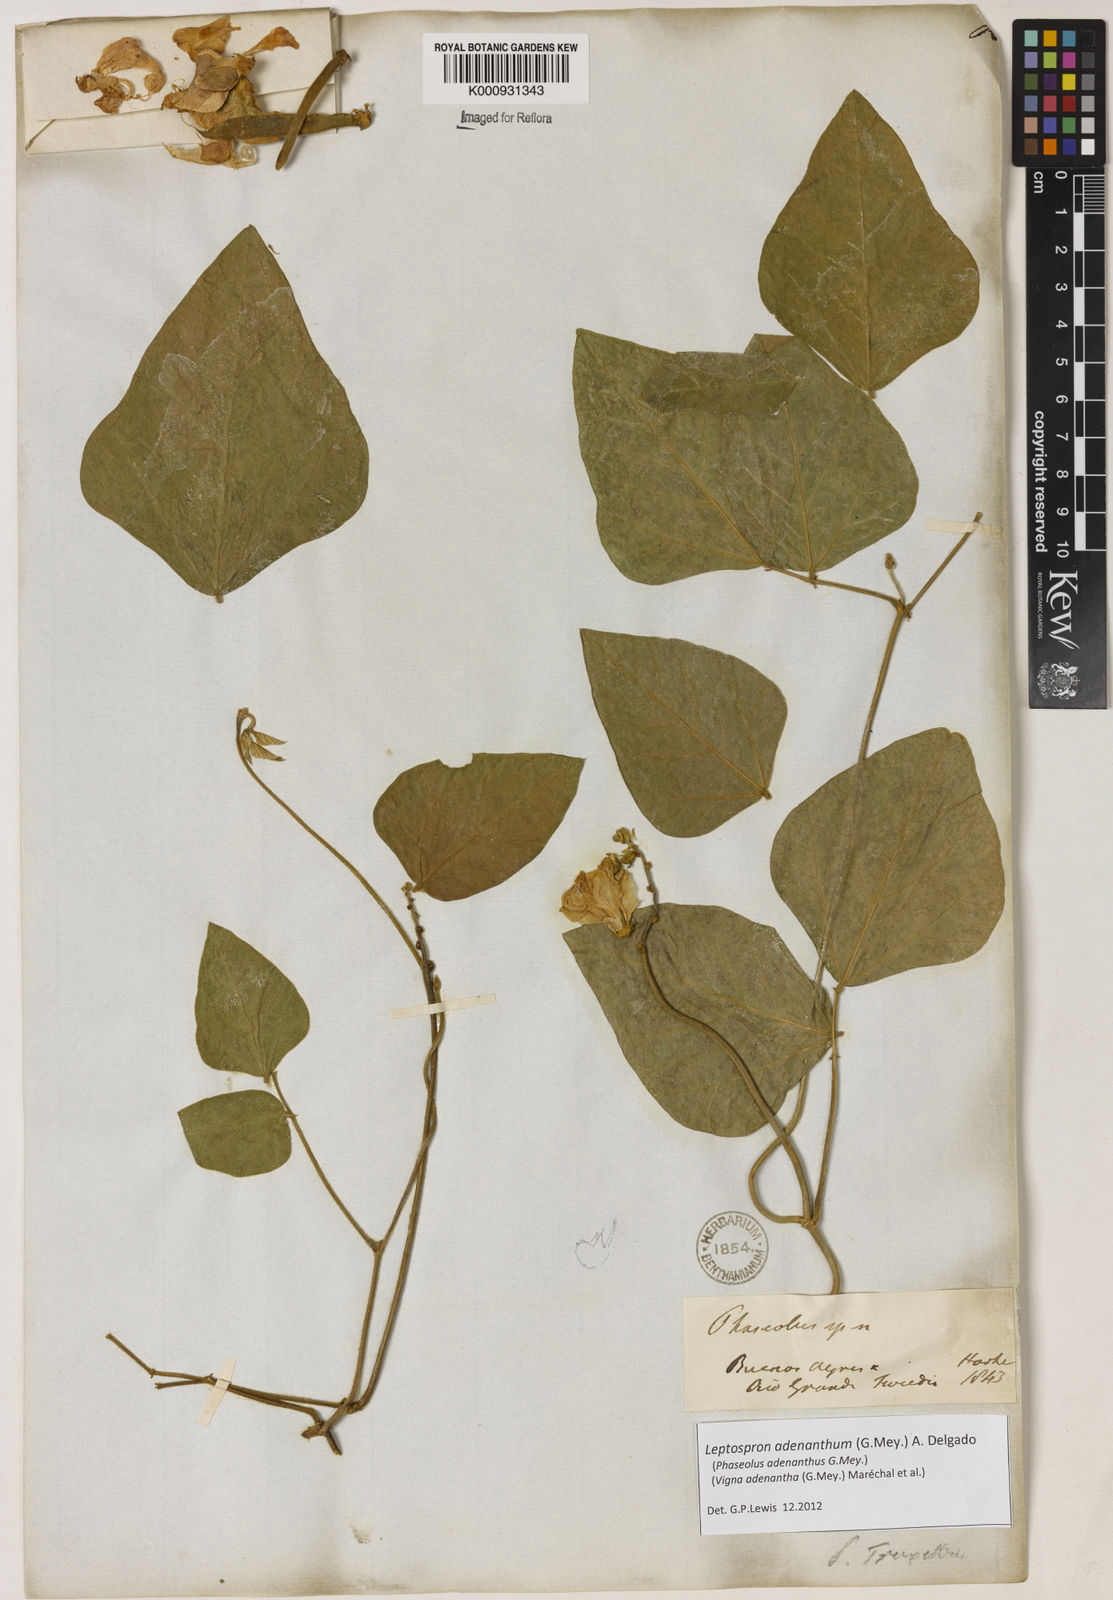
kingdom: Plantae
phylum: Tracheophyta
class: Magnoliopsida
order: Fabales
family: Fabaceae
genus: Leptospron
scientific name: Leptospron adenanthum
